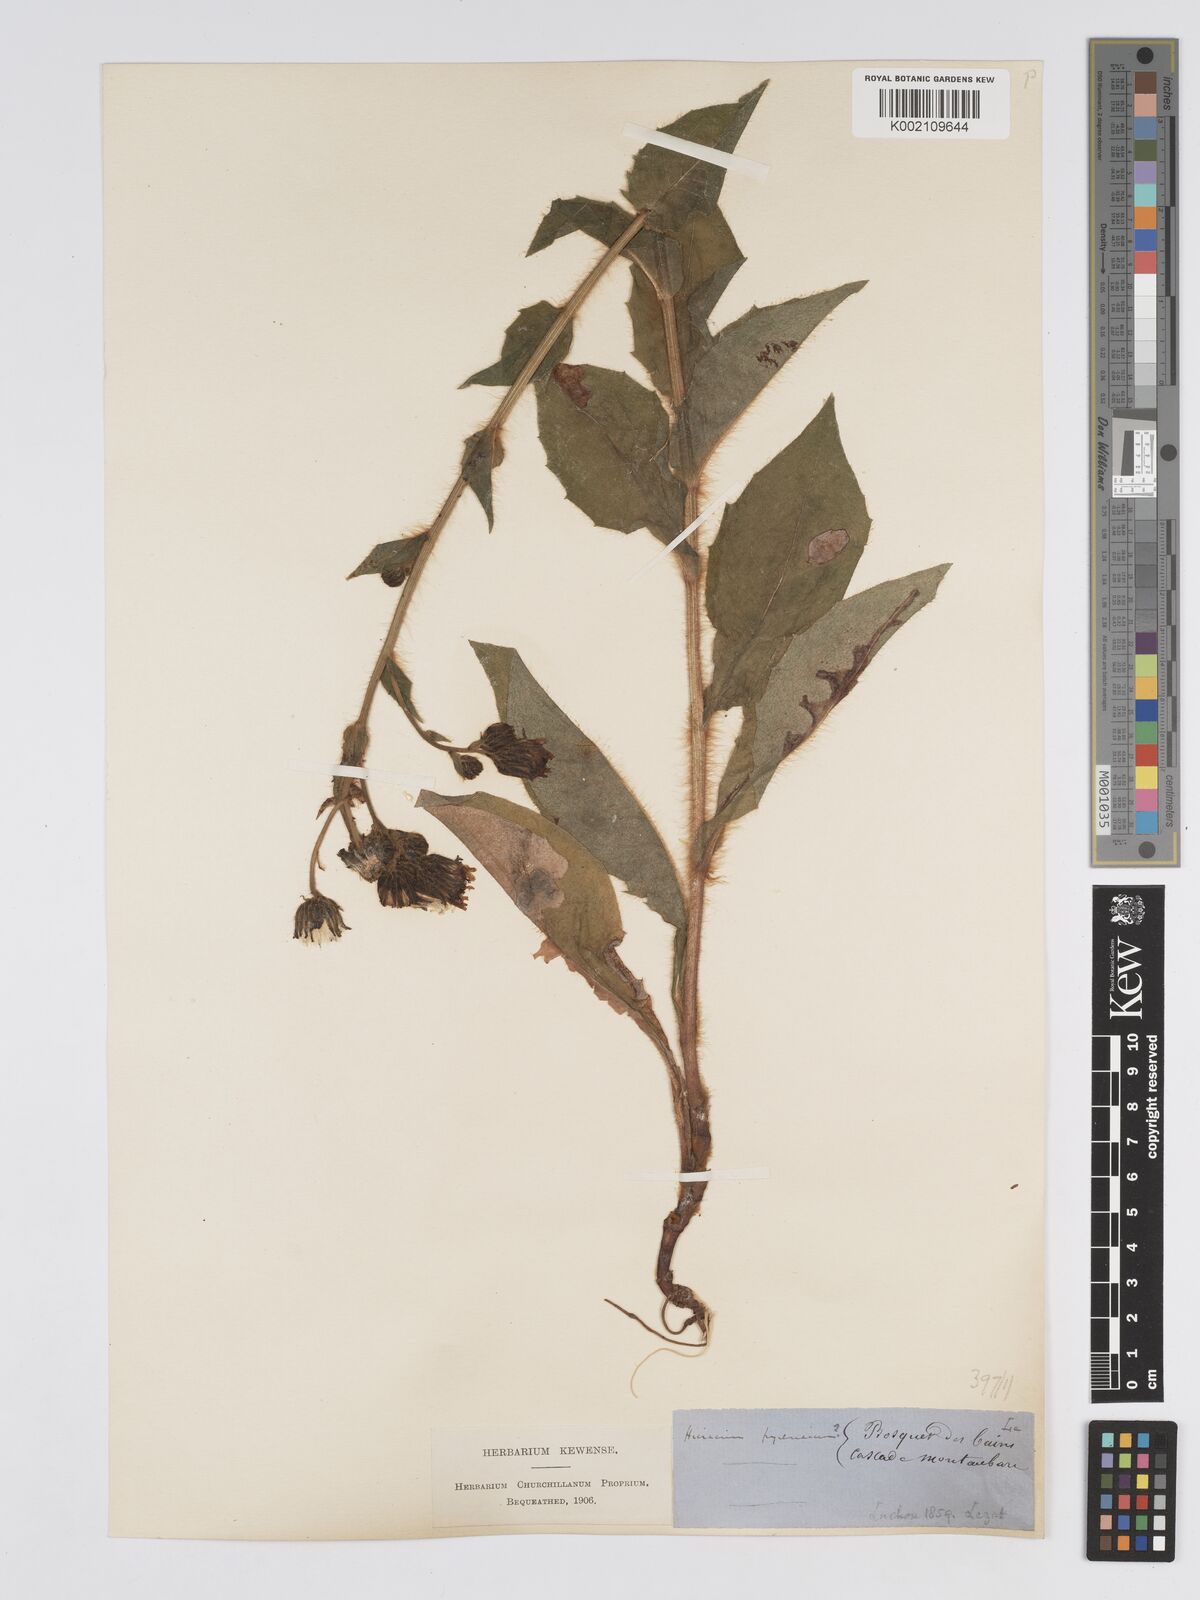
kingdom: Plantae
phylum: Tracheophyta
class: Magnoliopsida
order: Asterales
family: Asteraceae
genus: Hieracium
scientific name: Hieracium nobile
